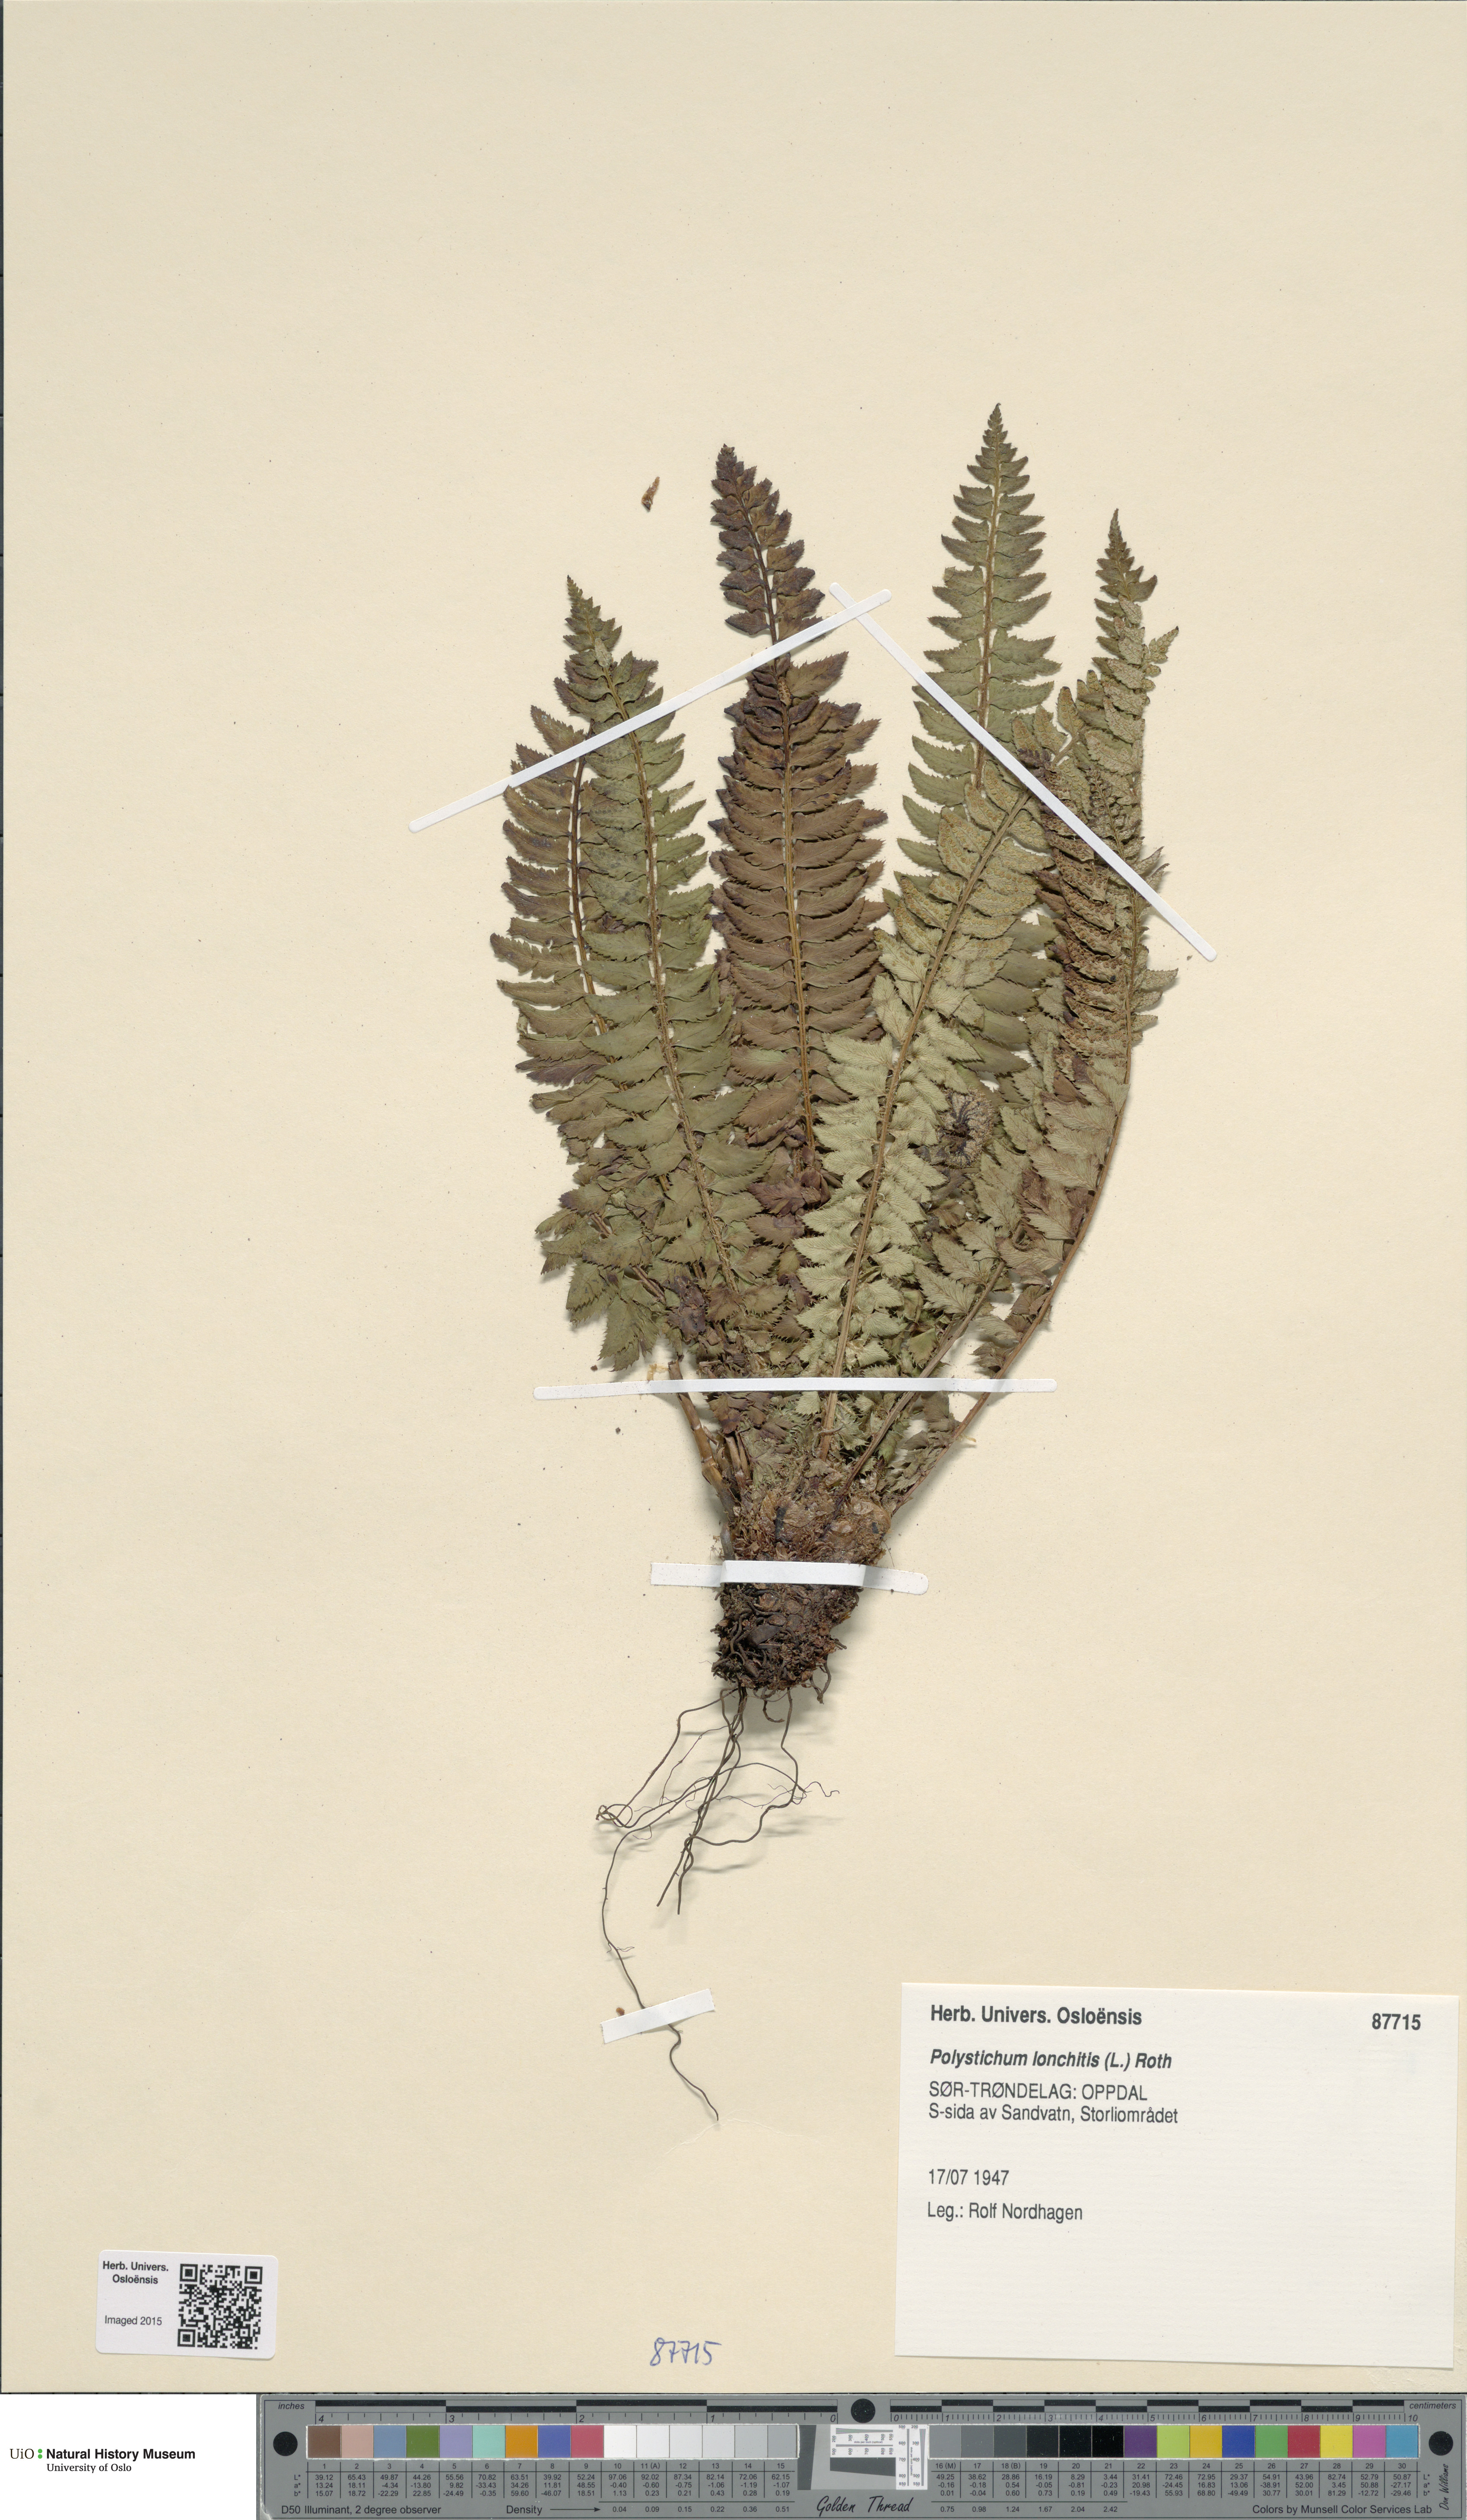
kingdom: Plantae
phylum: Tracheophyta
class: Polypodiopsida
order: Polypodiales
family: Dryopteridaceae
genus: Polystichum
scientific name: Polystichum lonchitis
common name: Holly fern
